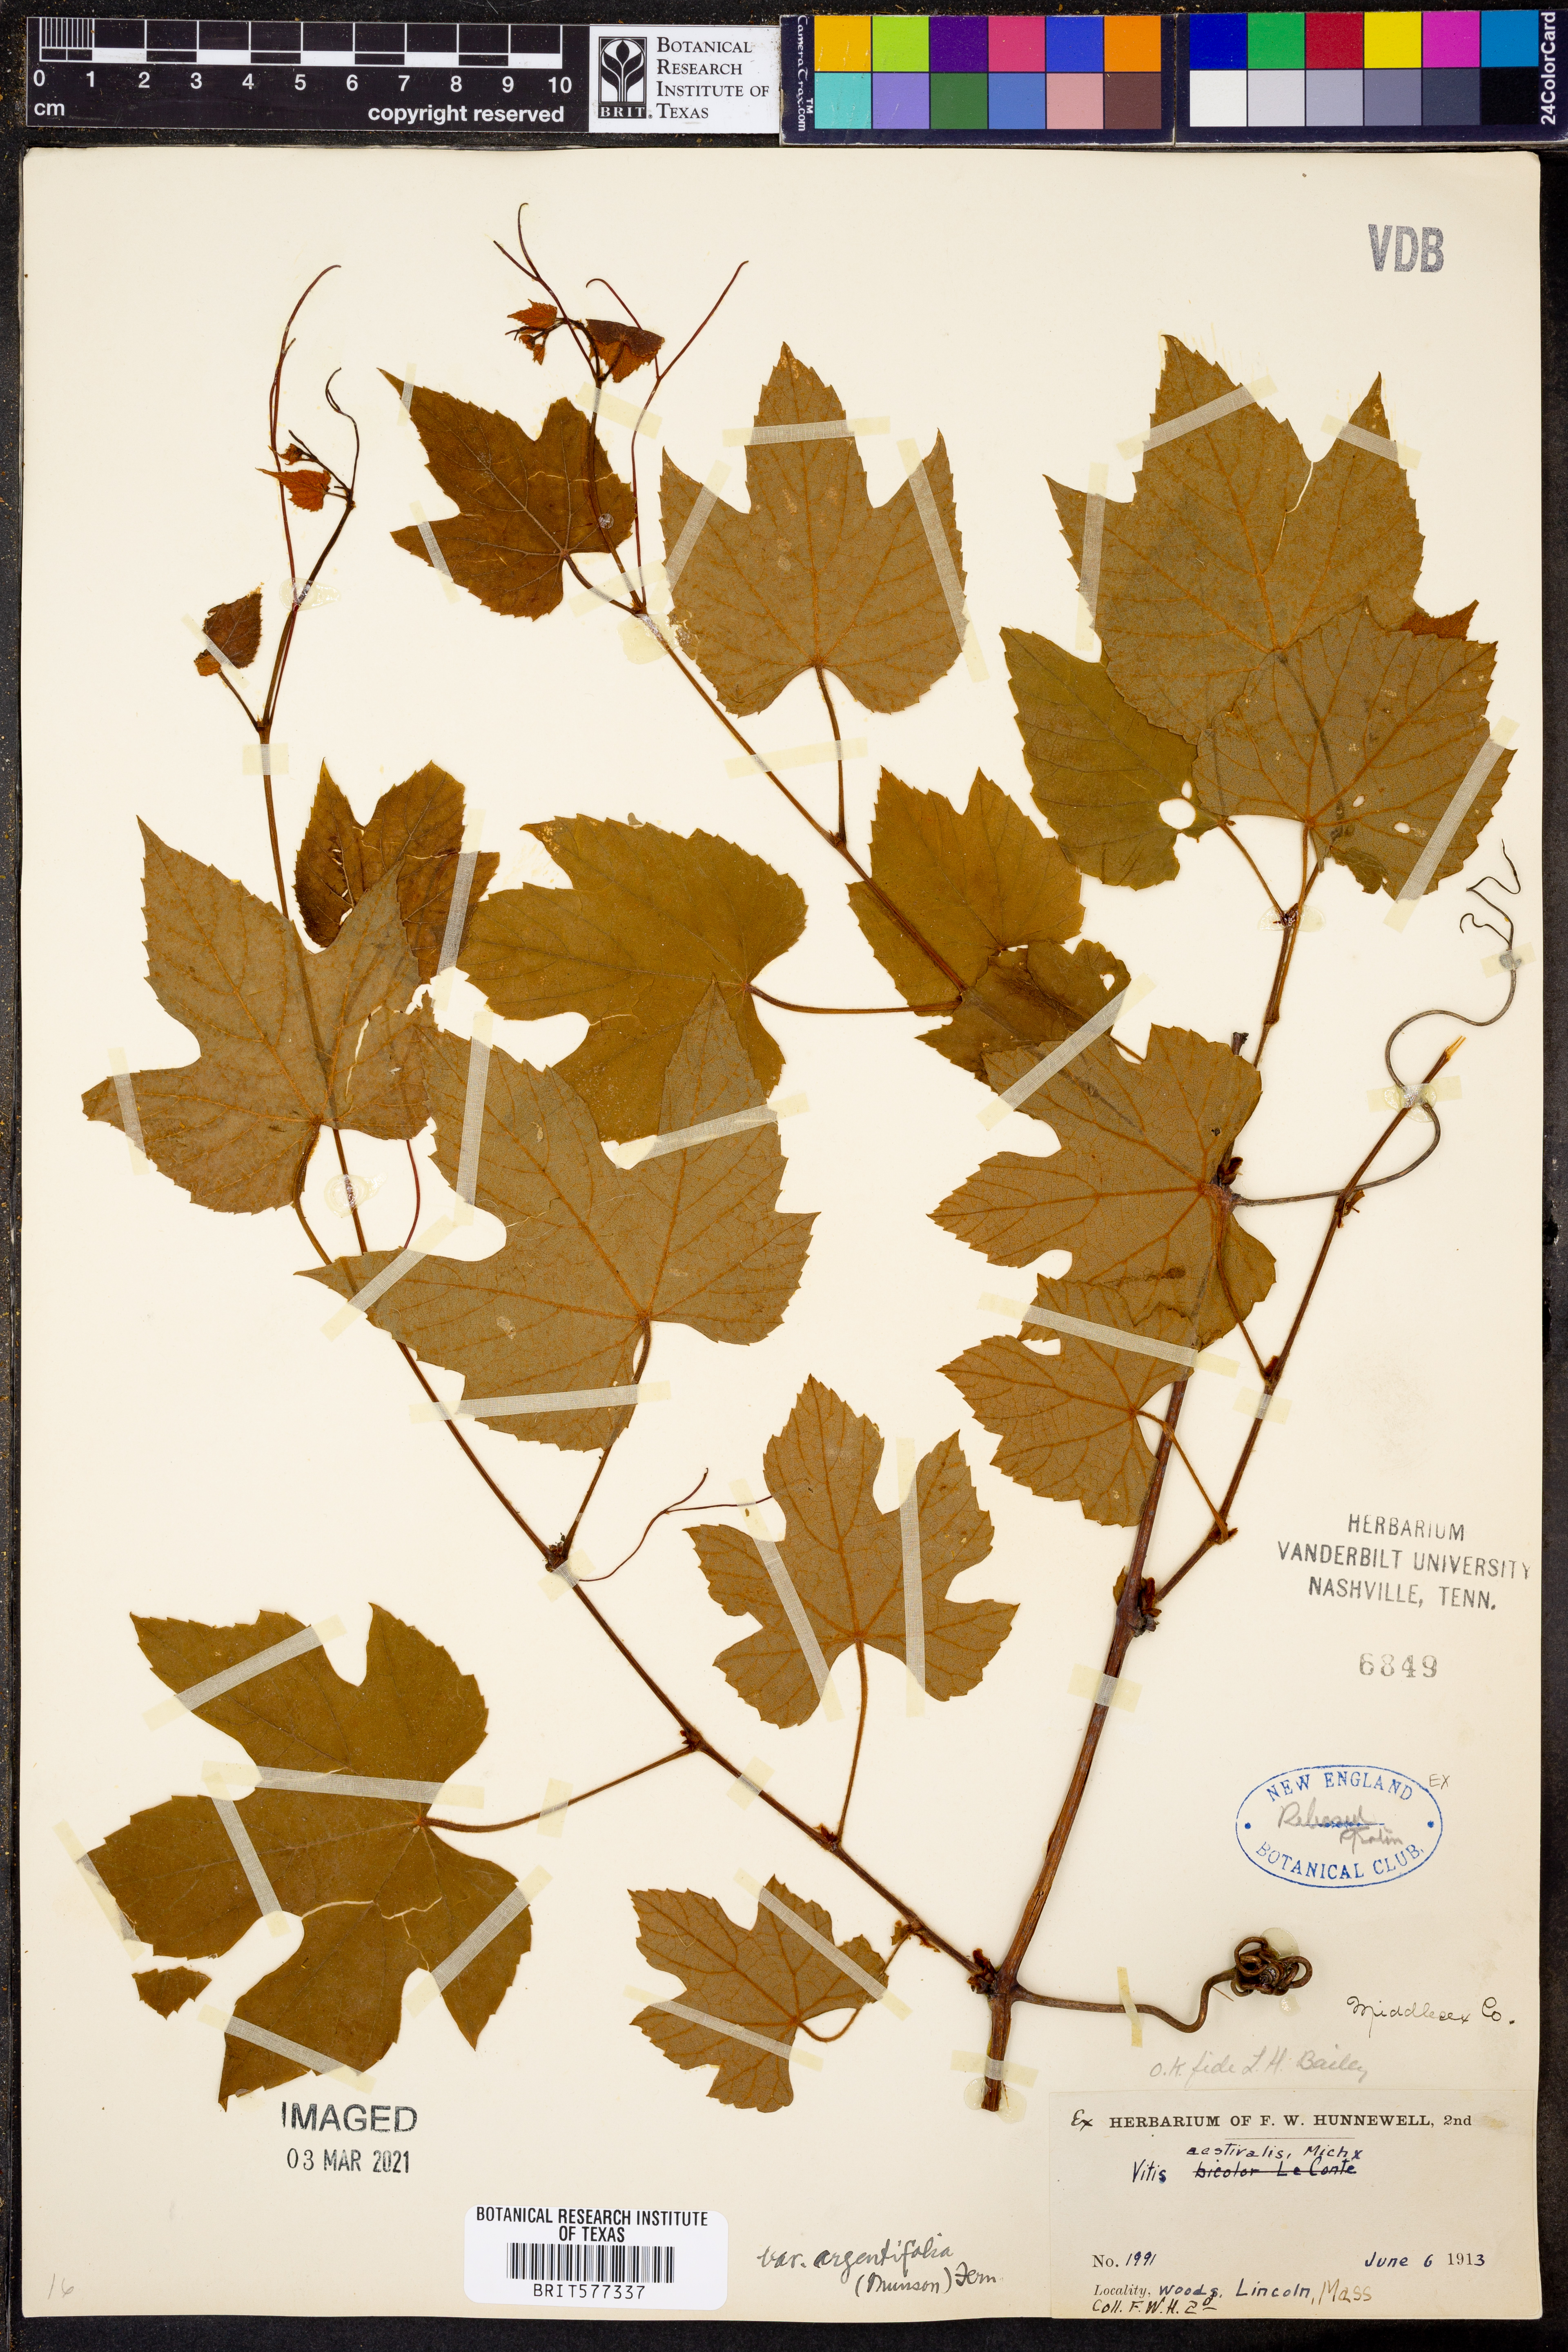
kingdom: Plantae
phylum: Tracheophyta
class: Magnoliopsida
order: Vitales
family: Vitaceae
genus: Vitis
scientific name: Vitis aestivalis
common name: Pigeon grape
